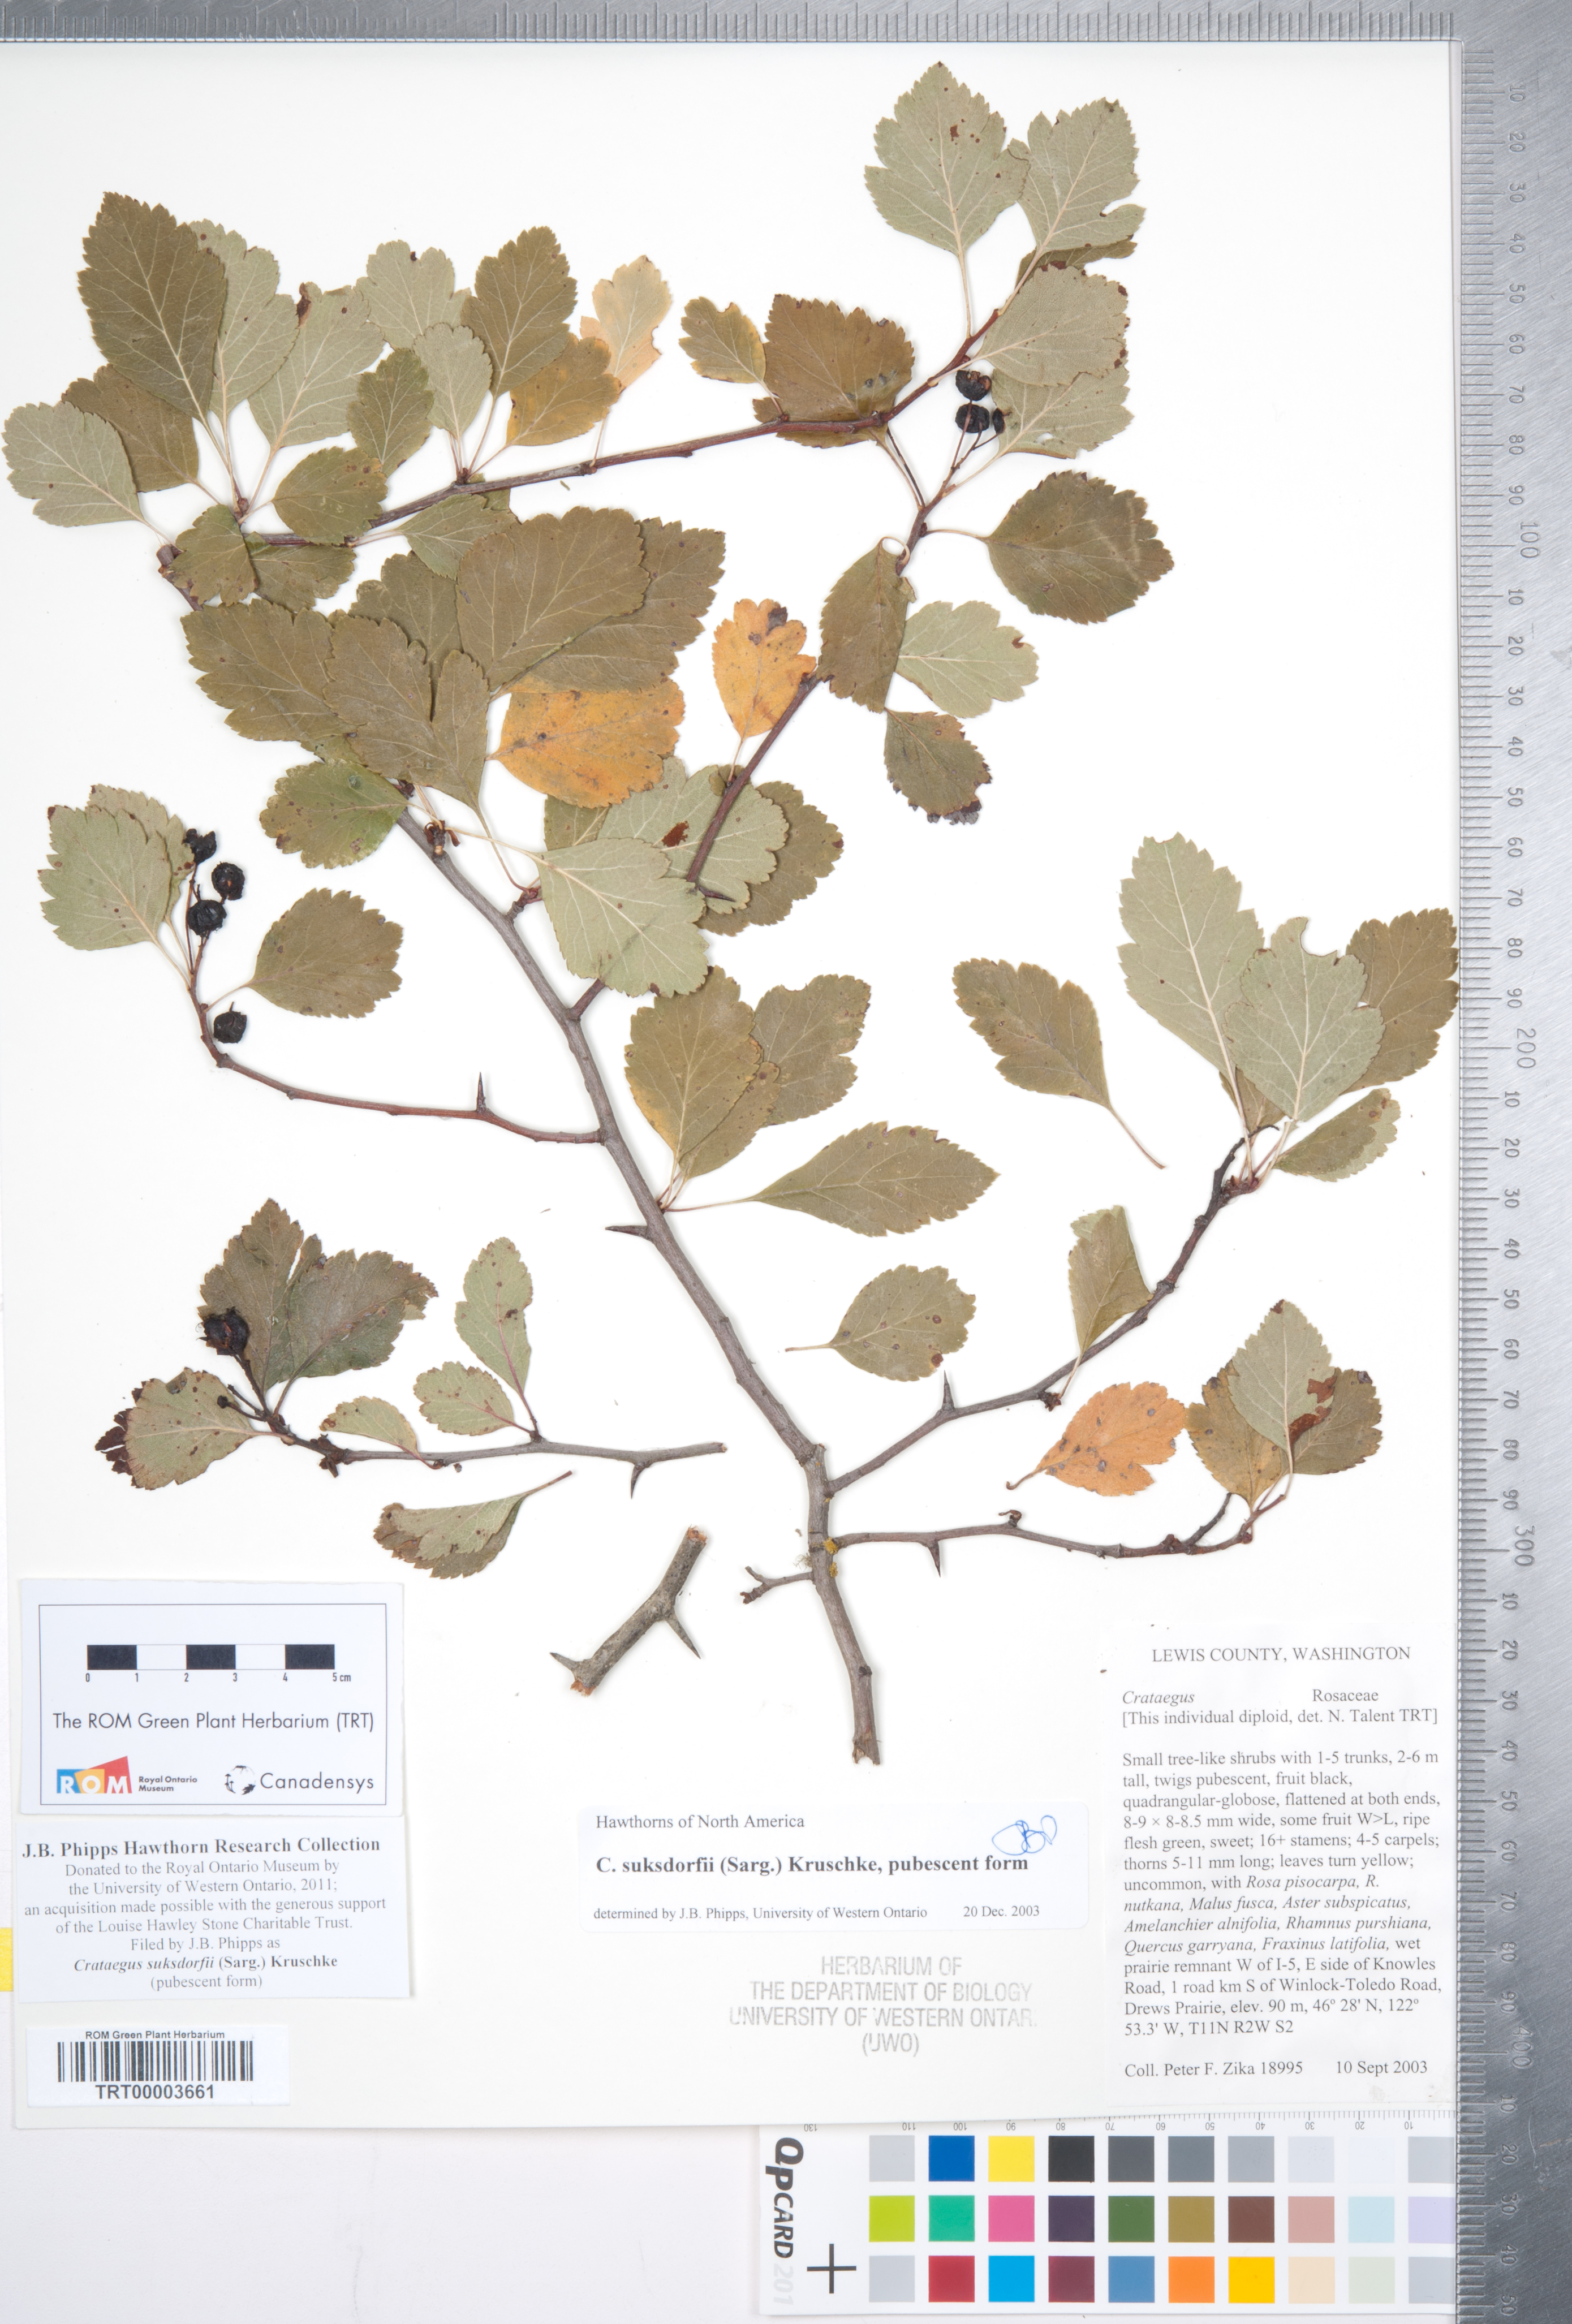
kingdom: Plantae
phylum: Tracheophyta
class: Magnoliopsida
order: Rosales
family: Rosaceae
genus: Crataegus
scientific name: Crataegus gaylussacia
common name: Huckleberry hawthorn
